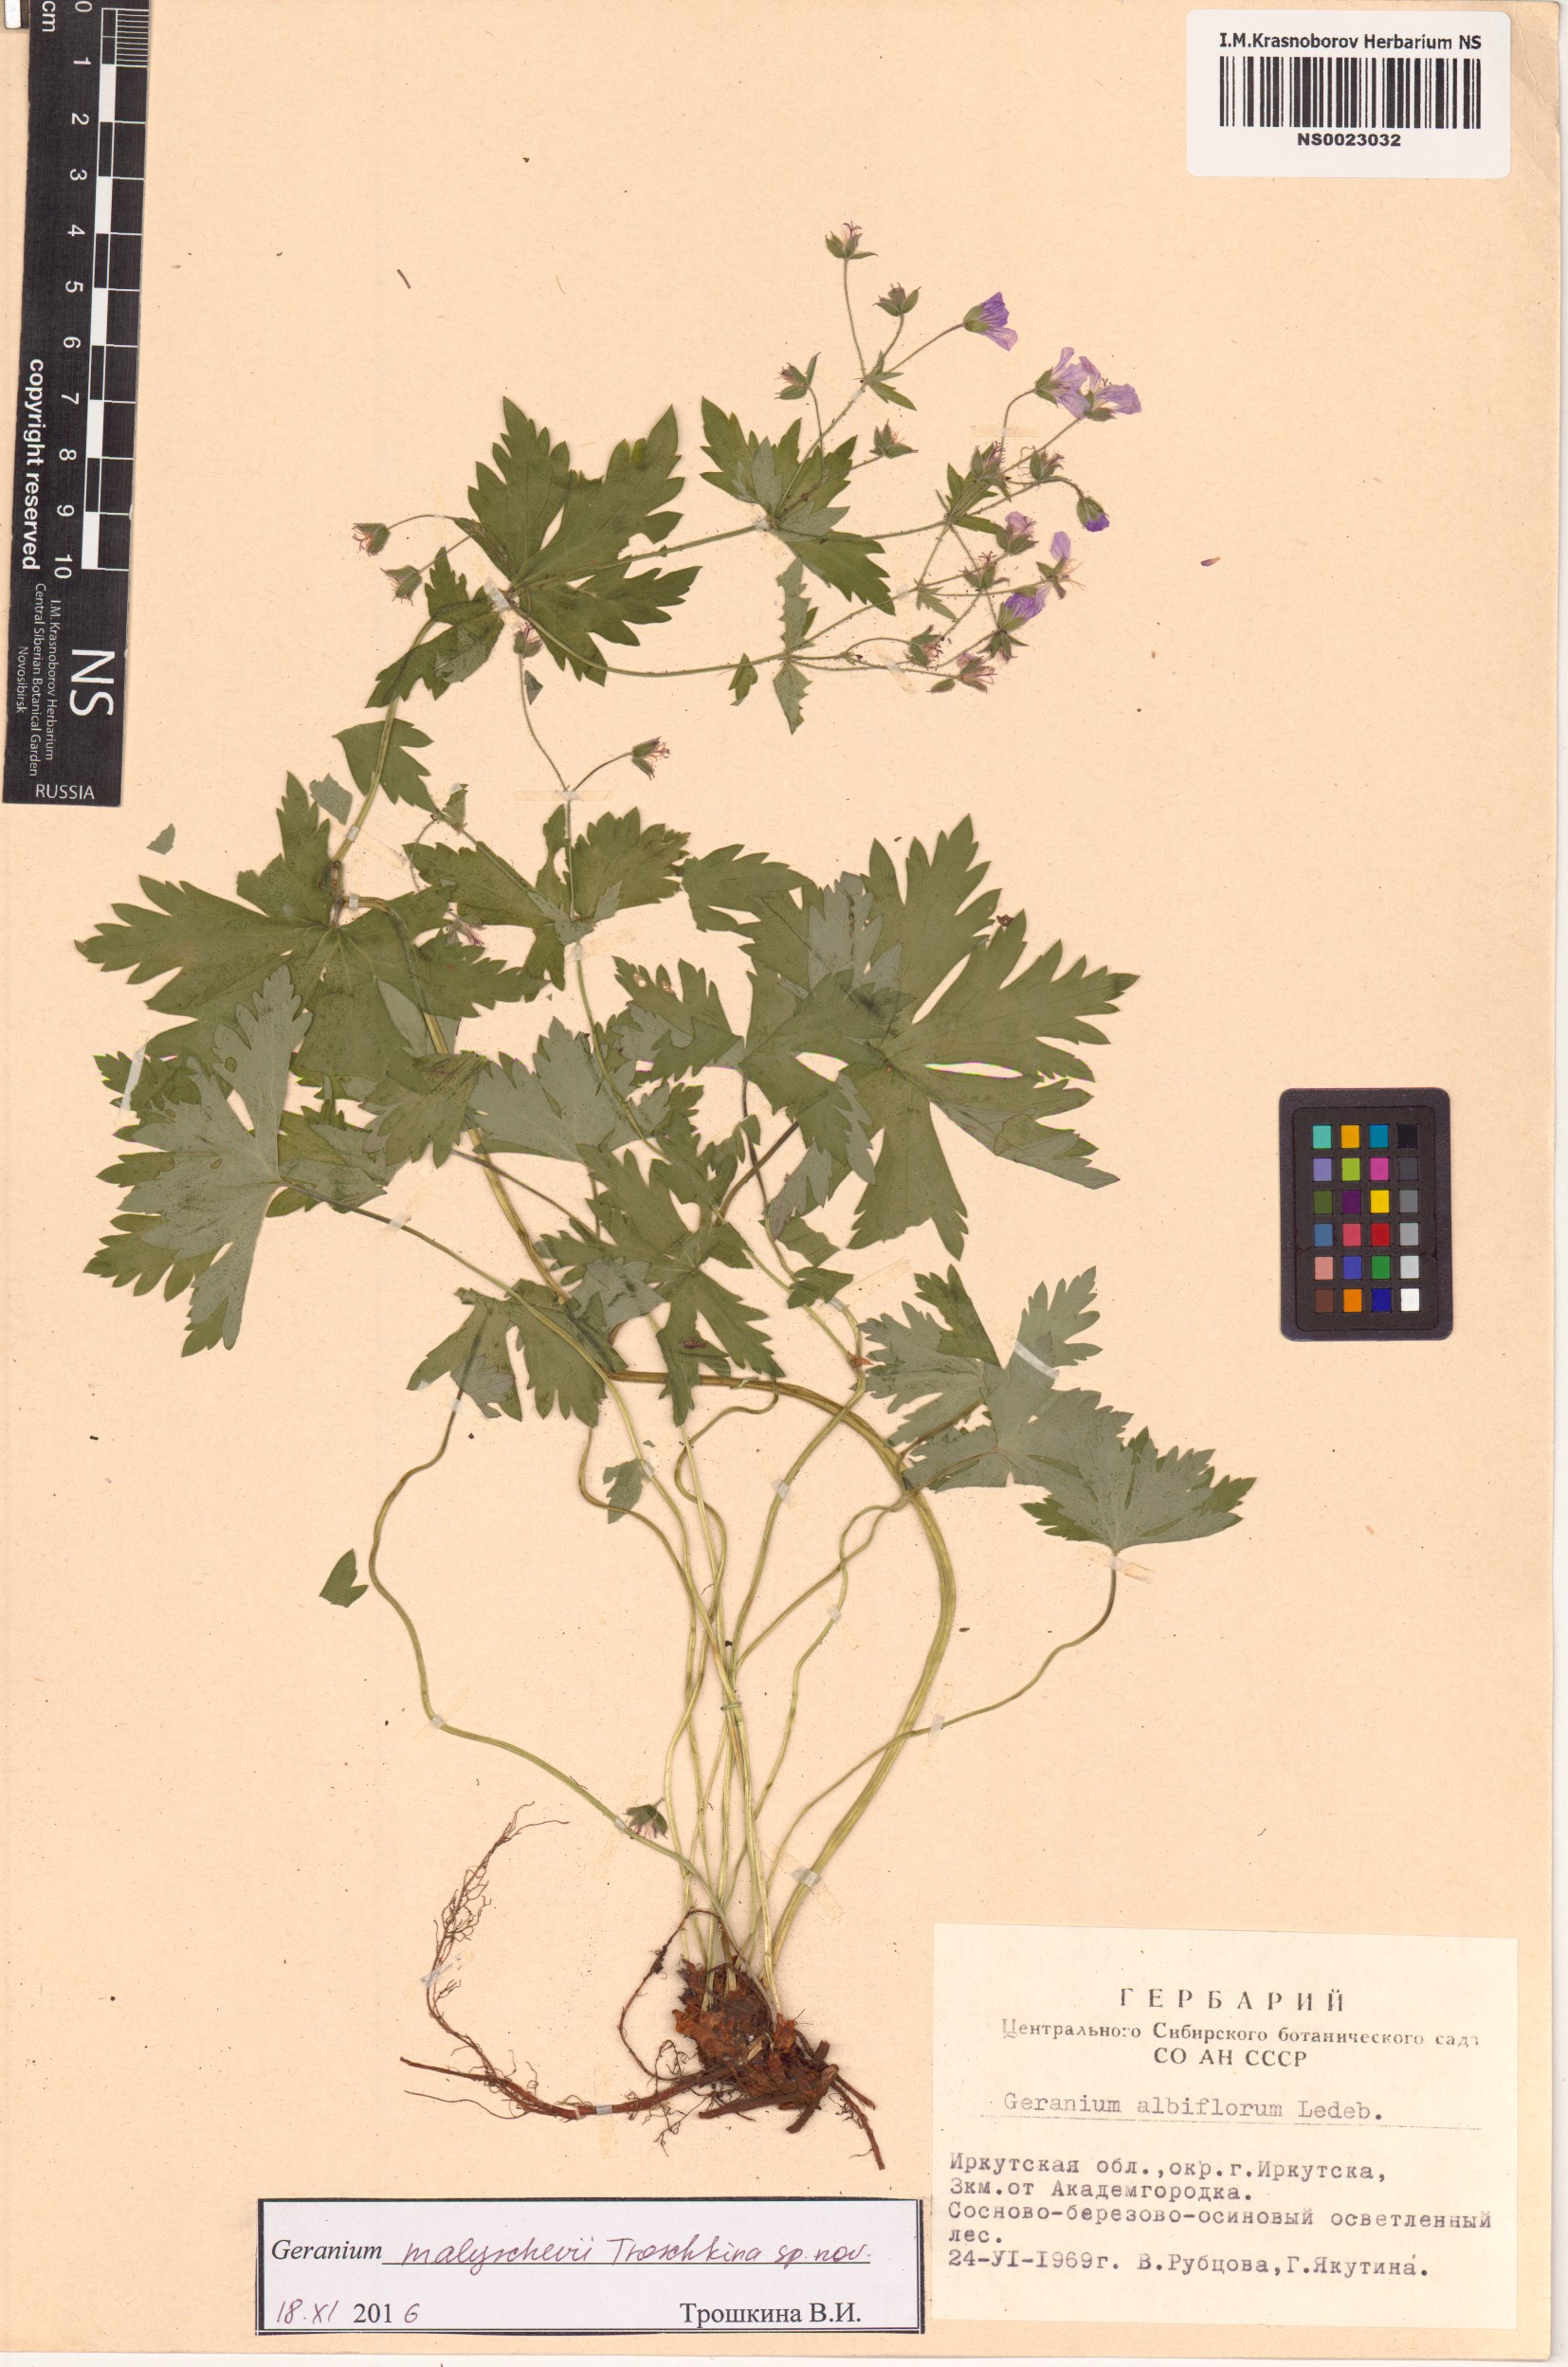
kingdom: Plantae
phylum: Tracheophyta
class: Magnoliopsida
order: Geraniales
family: Geraniaceae
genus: Geranium
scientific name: Geranium malyschevii
